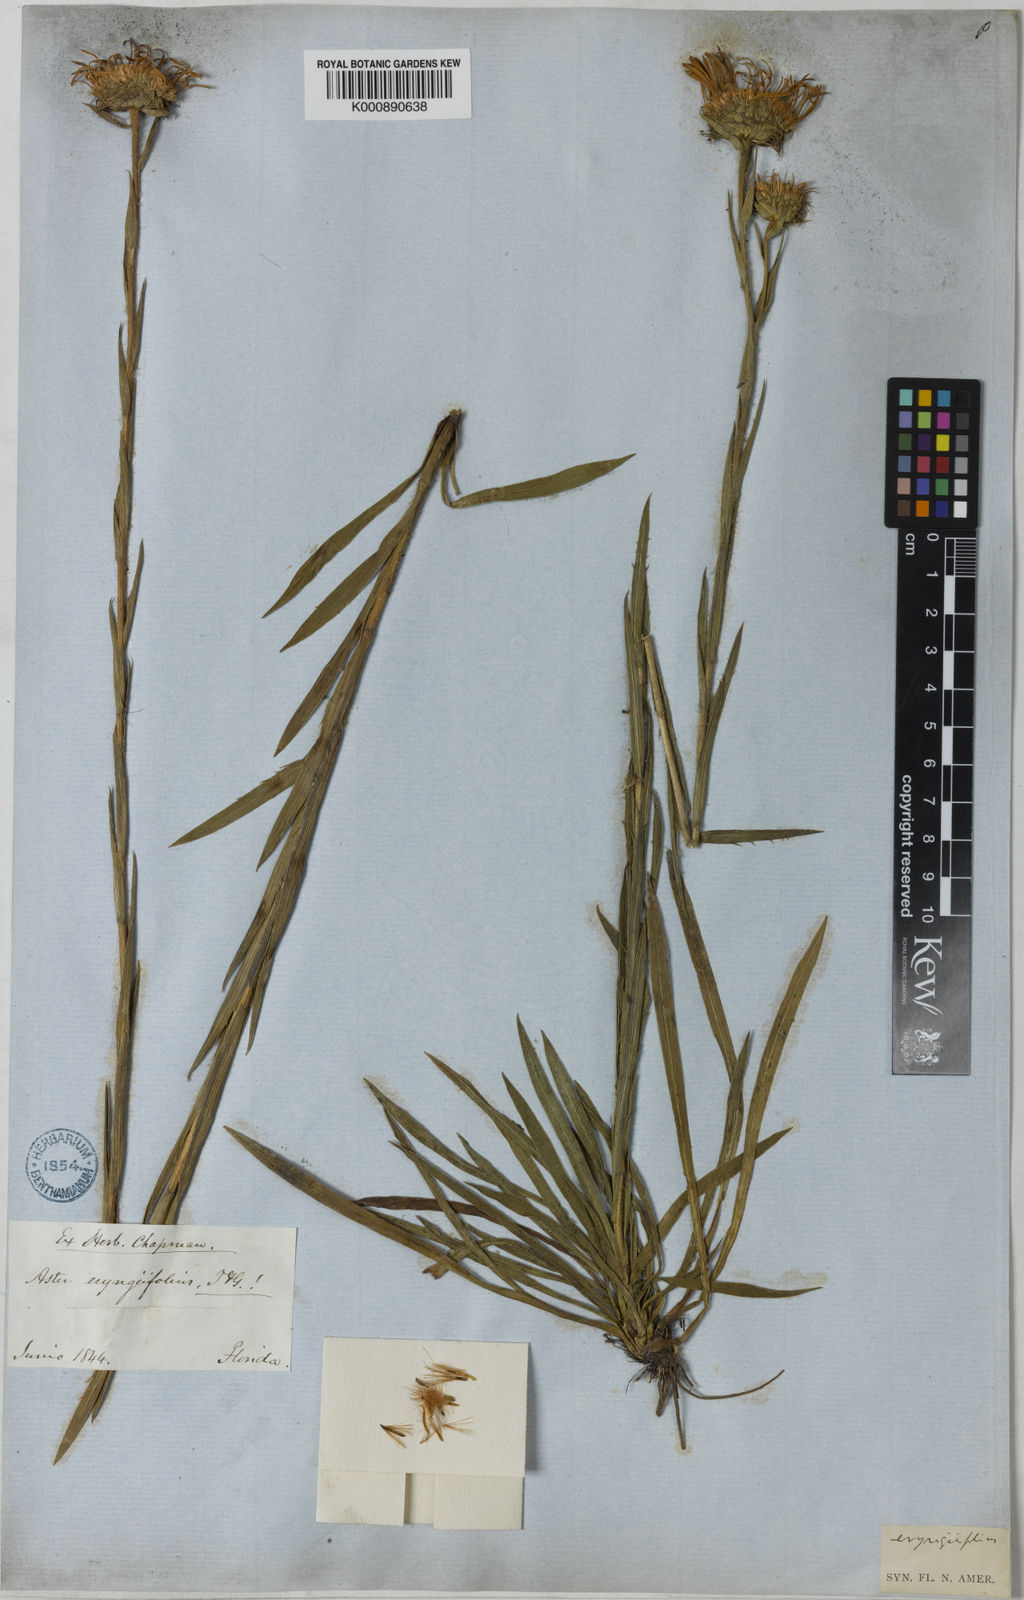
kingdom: Plantae
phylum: Tracheophyta
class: Magnoliopsida
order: Asterales
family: Asteraceae
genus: Eurybia
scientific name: Eurybia eryngiifolia
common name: Thistle-leaf aster
